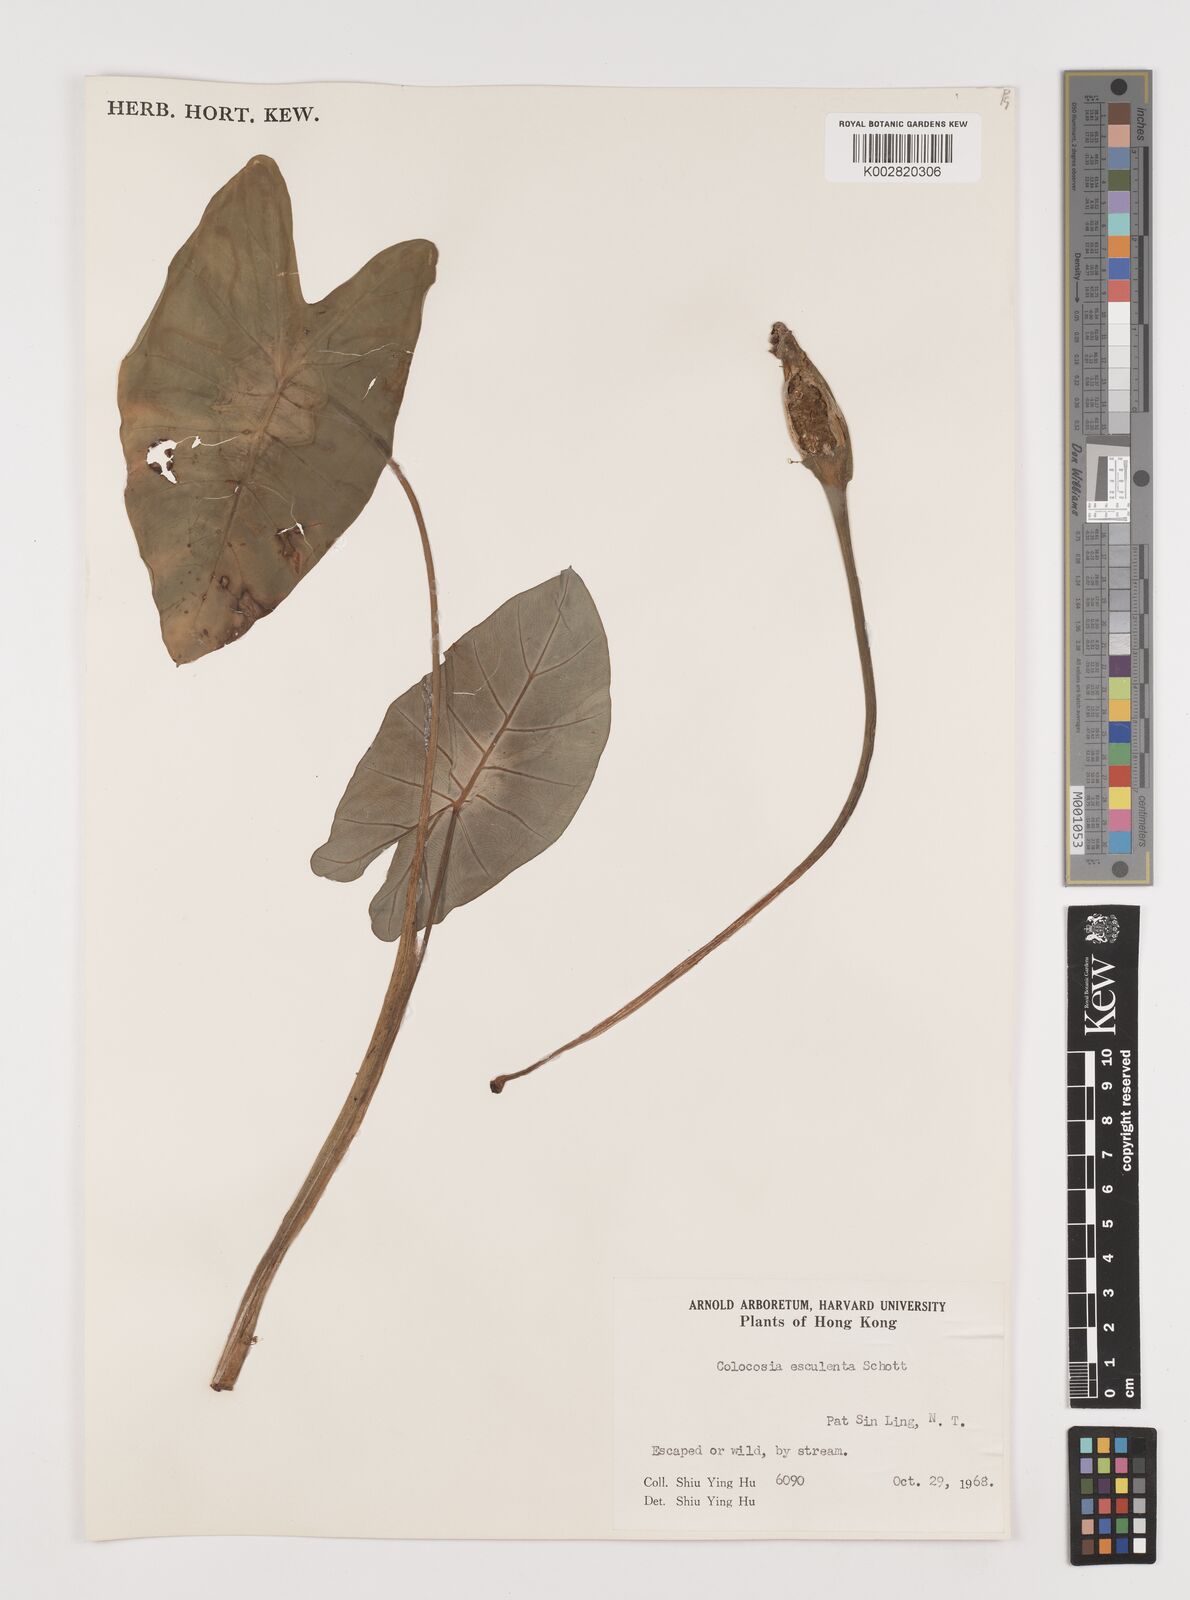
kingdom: Plantae
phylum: Tracheophyta
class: Liliopsida
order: Alismatales
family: Araceae
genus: Colocasia
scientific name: Colocasia esculenta
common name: Taro
